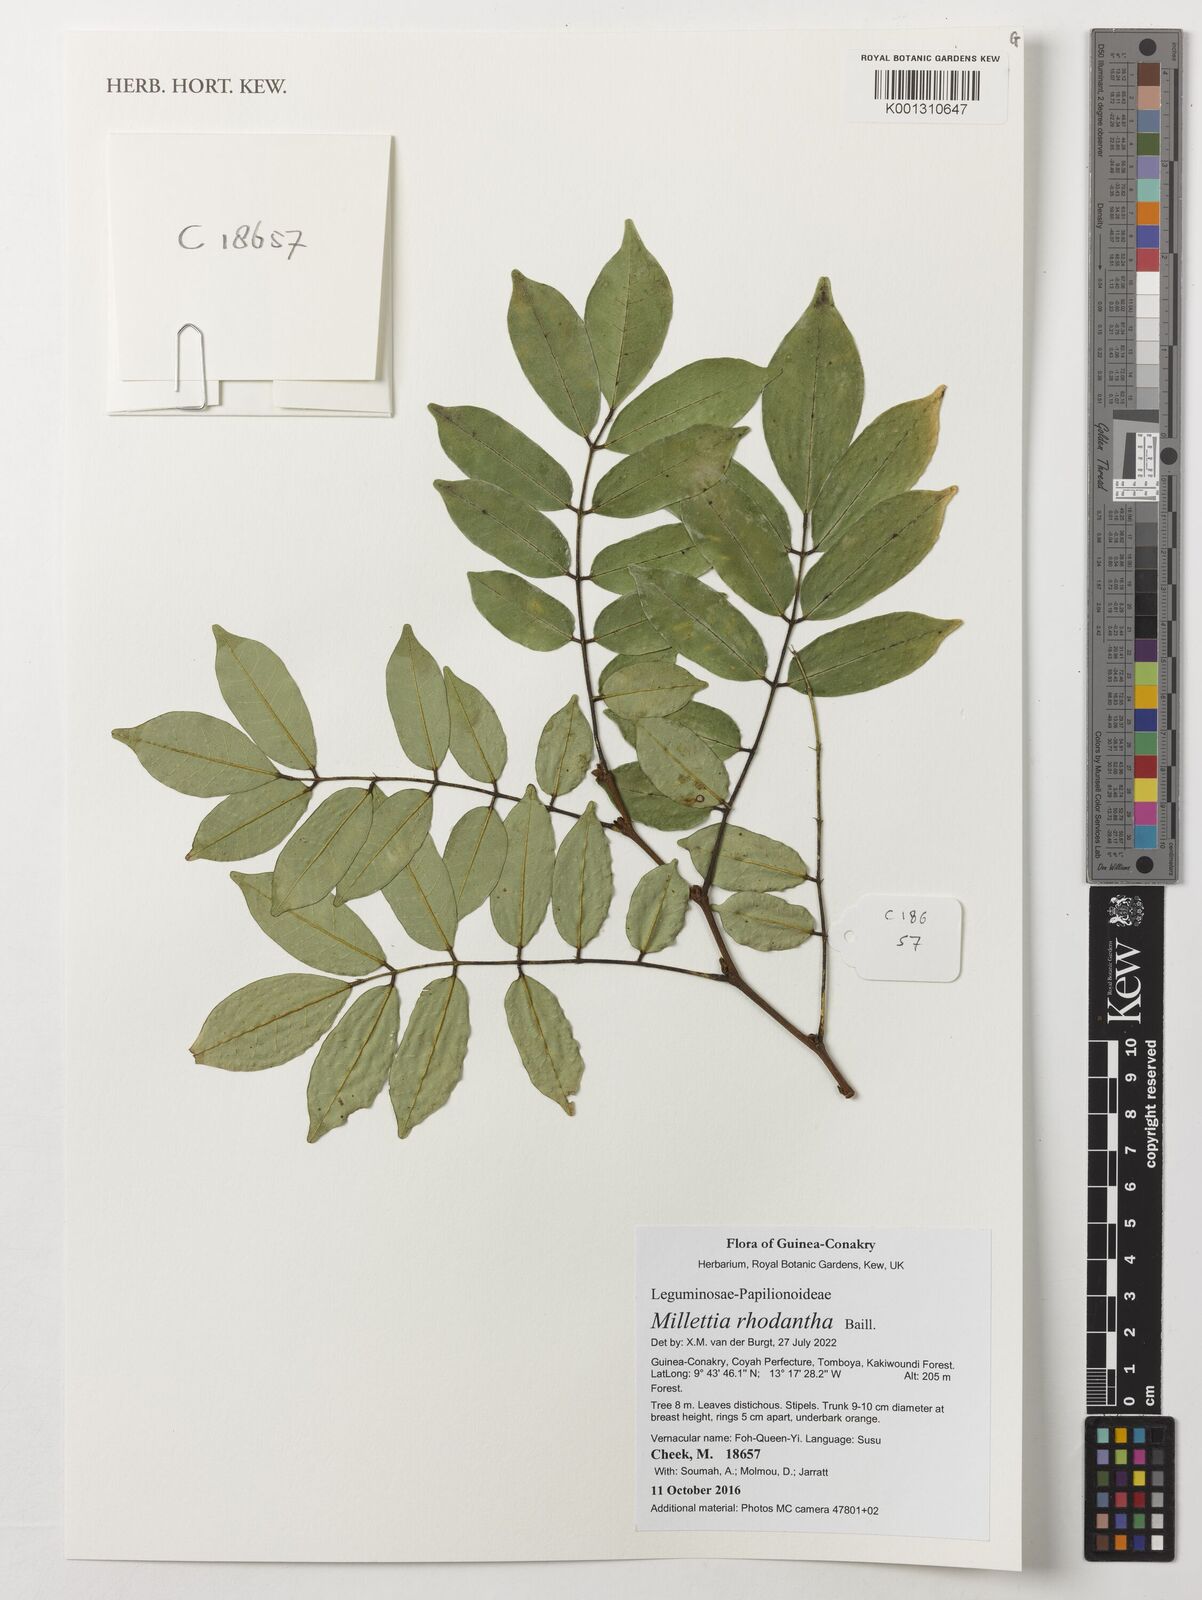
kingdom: Plantae
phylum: Tracheophyta
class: Magnoliopsida
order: Fabales
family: Fabaceae
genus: Millettia
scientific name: Millettia rhodantha
